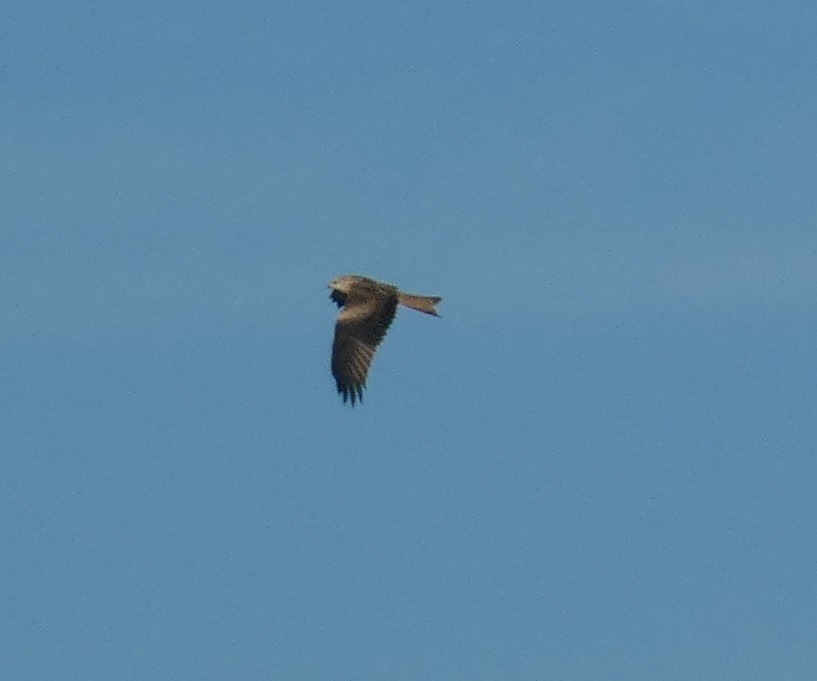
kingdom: Animalia
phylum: Chordata
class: Aves
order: Accipitriformes
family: Accipitridae
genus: Milvus
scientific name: Milvus milvus
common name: Rød glente
